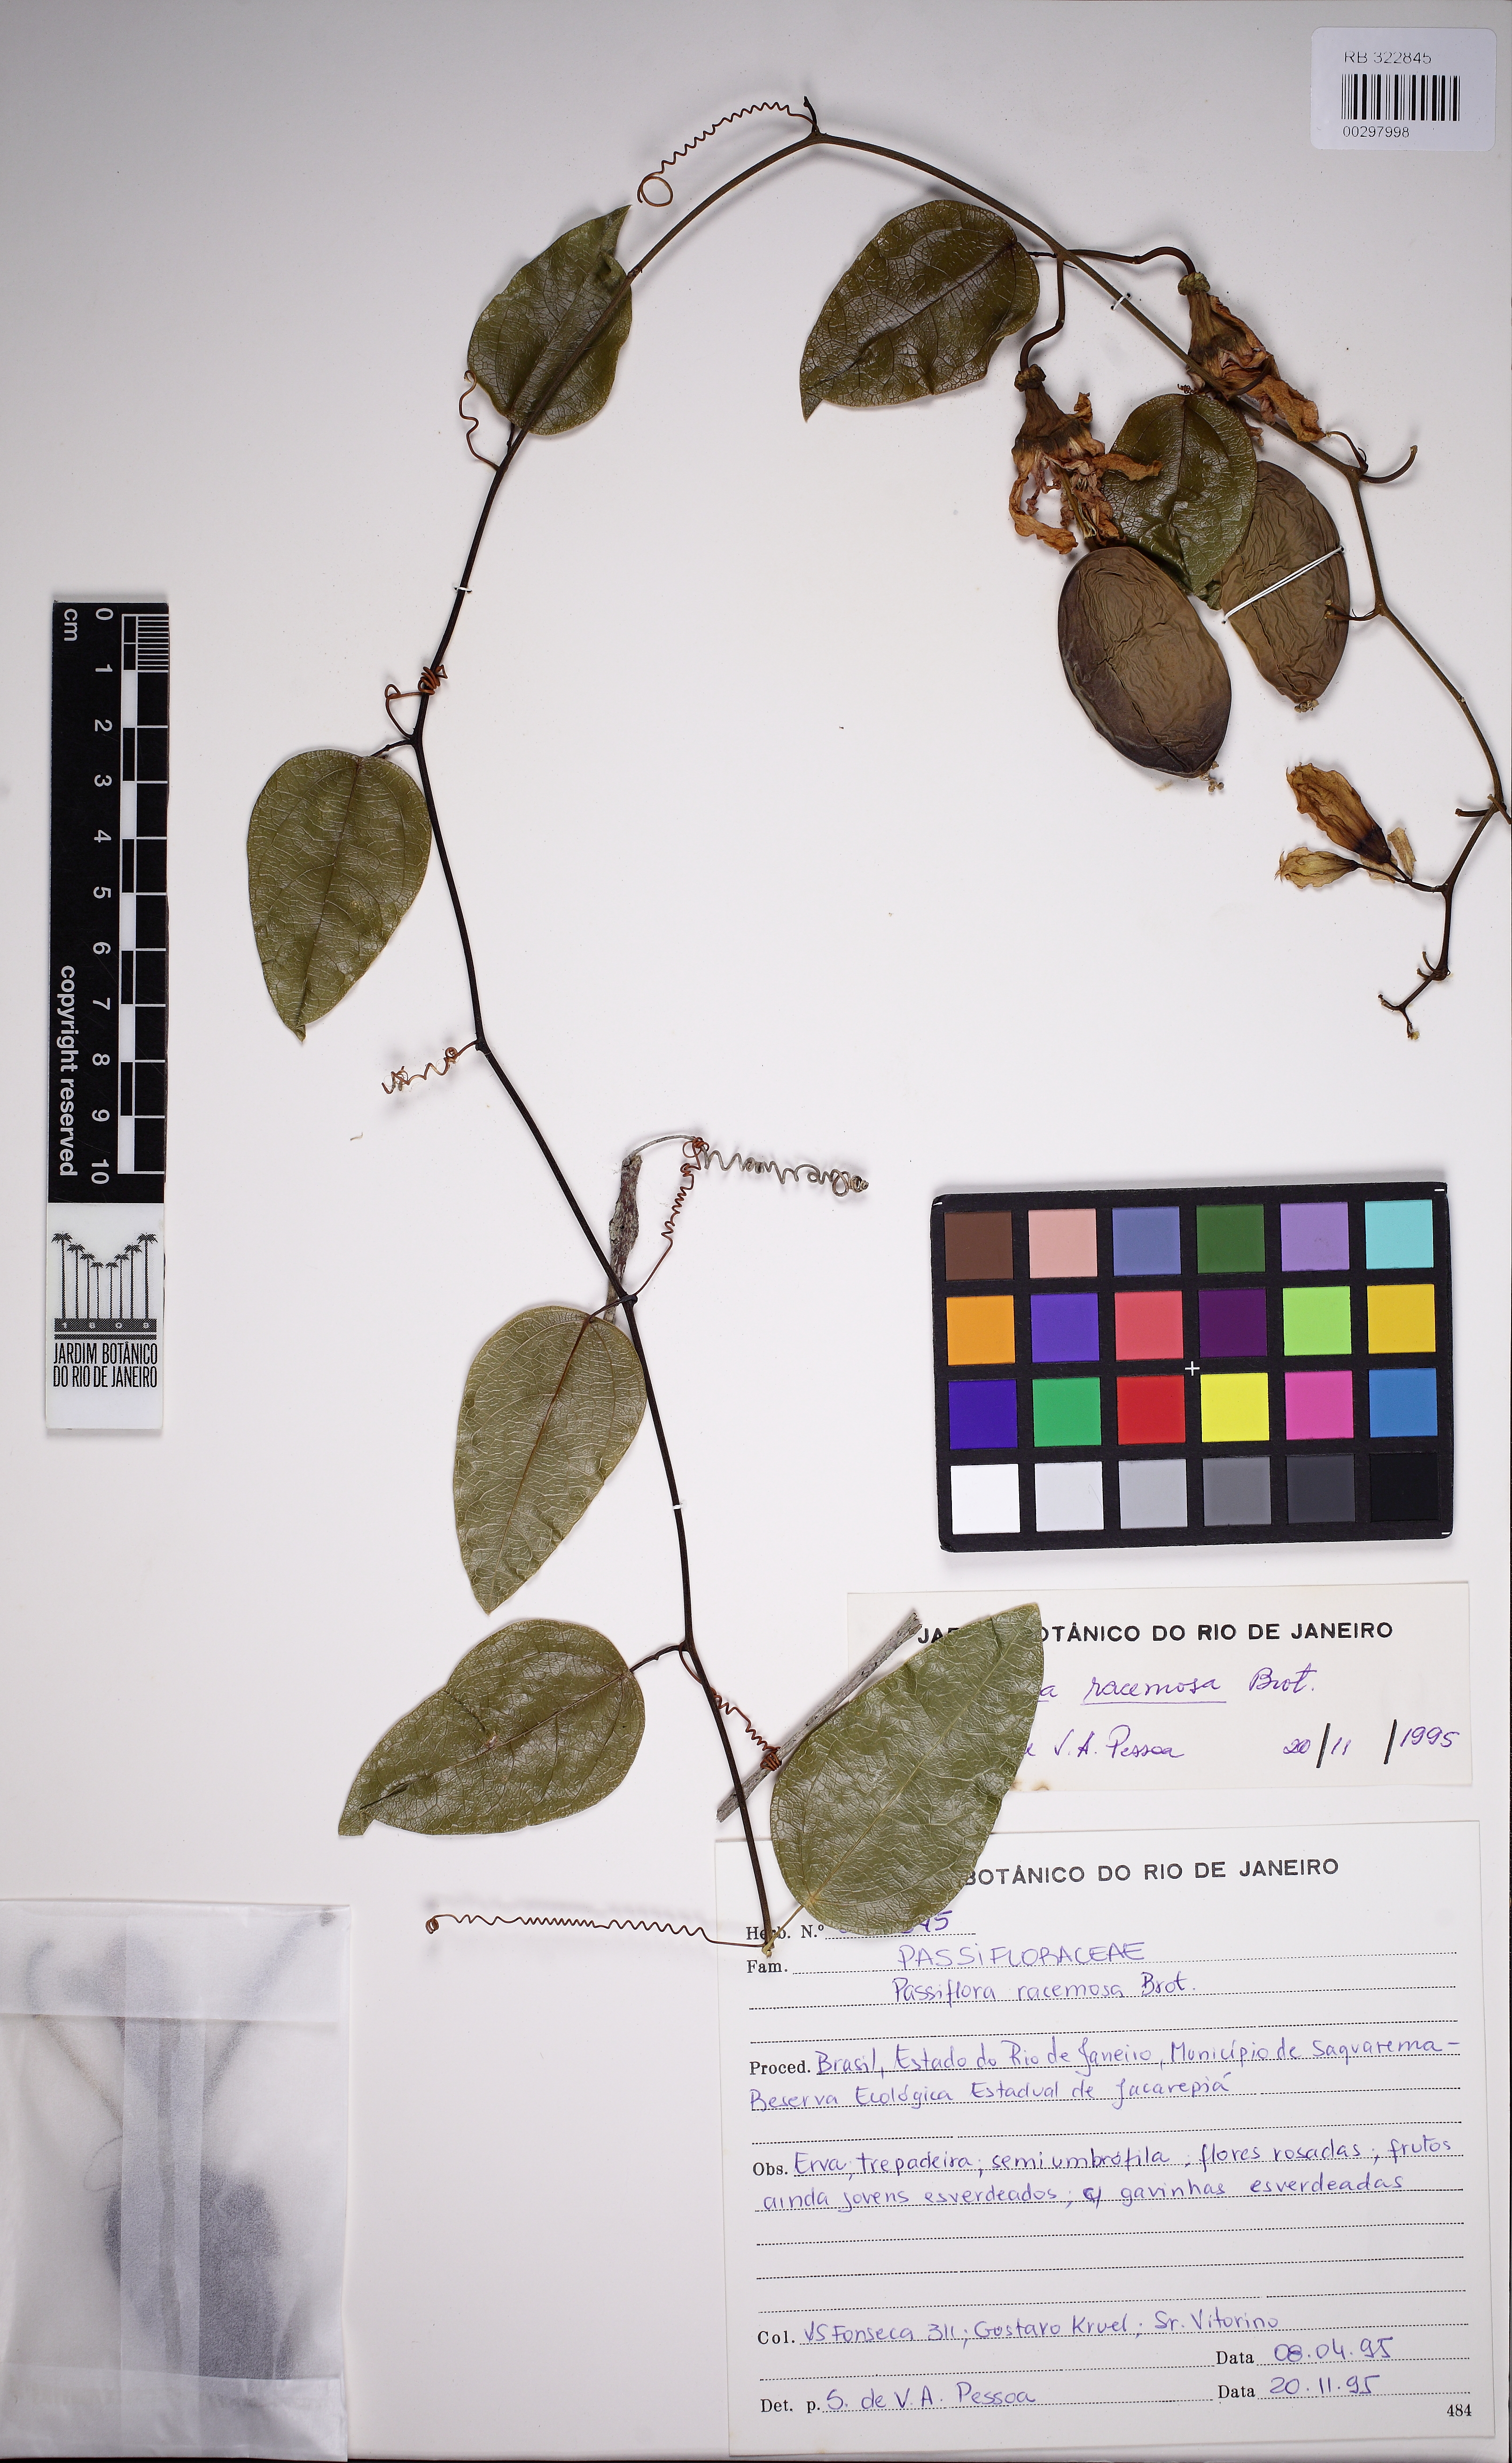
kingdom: Plantae
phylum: Tracheophyta
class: Magnoliopsida
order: Malpighiales
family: Passifloraceae
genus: Passiflora
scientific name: Passiflora racemosa
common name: Red passionflower
